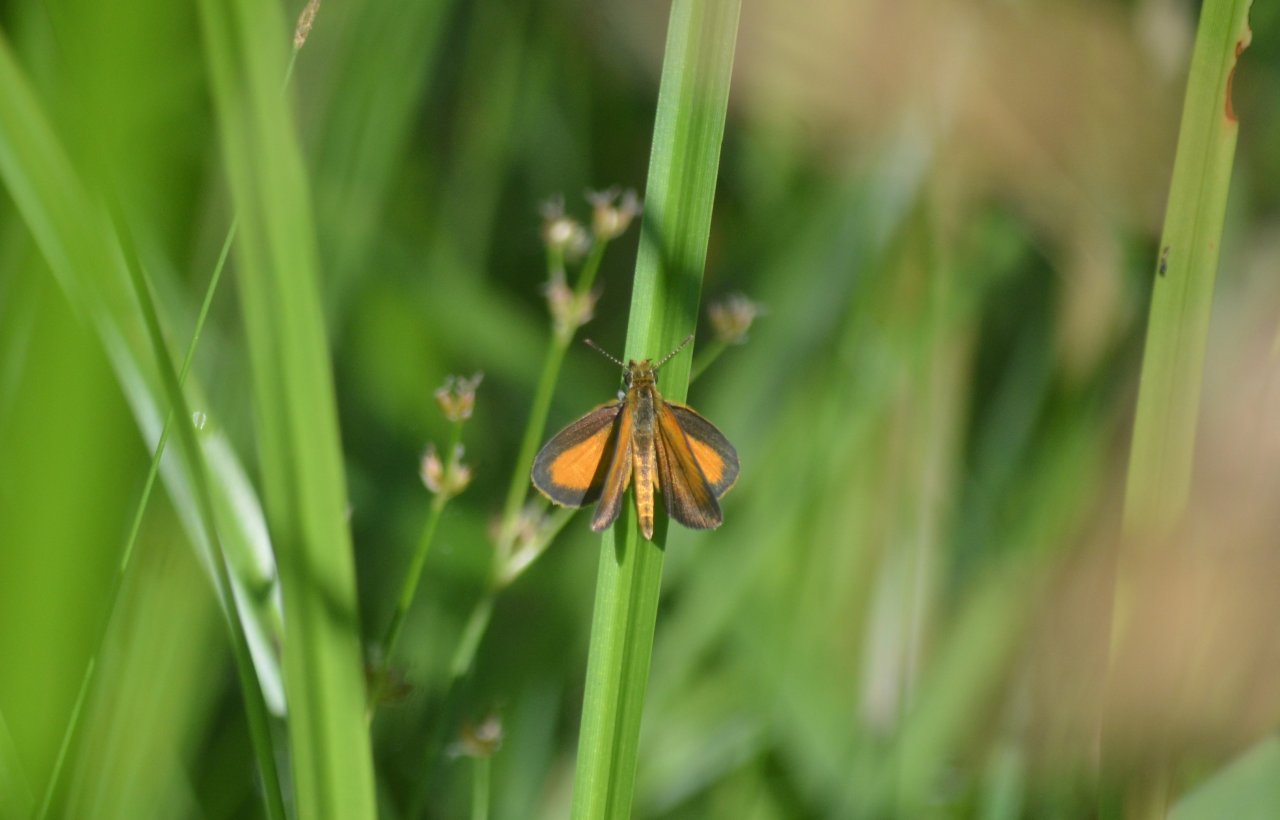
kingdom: Animalia
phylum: Arthropoda
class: Insecta
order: Lepidoptera
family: Hesperiidae
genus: Ancyloxypha
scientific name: Ancyloxypha numitor
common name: Least Skipper
